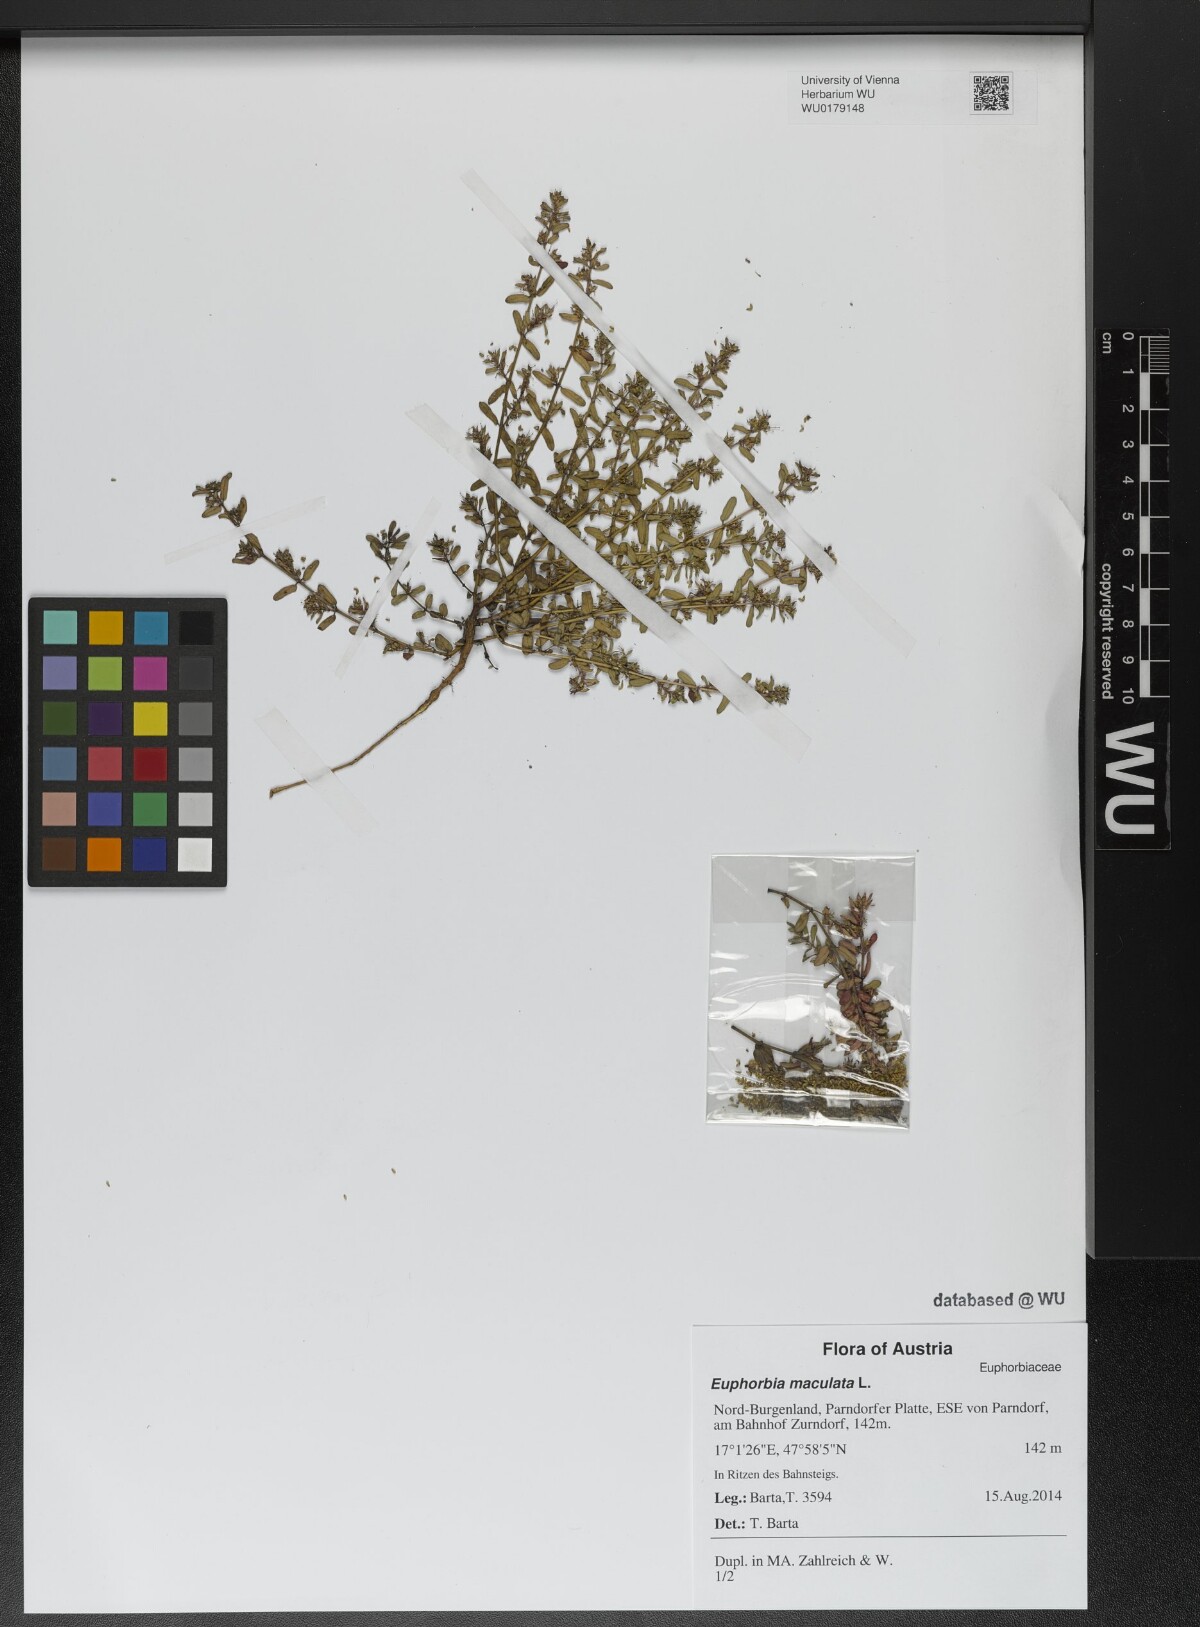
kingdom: Plantae
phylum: Tracheophyta
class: Magnoliopsida
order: Malpighiales
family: Euphorbiaceae
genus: Euphorbia
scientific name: Euphorbia maculata
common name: Spotted spurge
